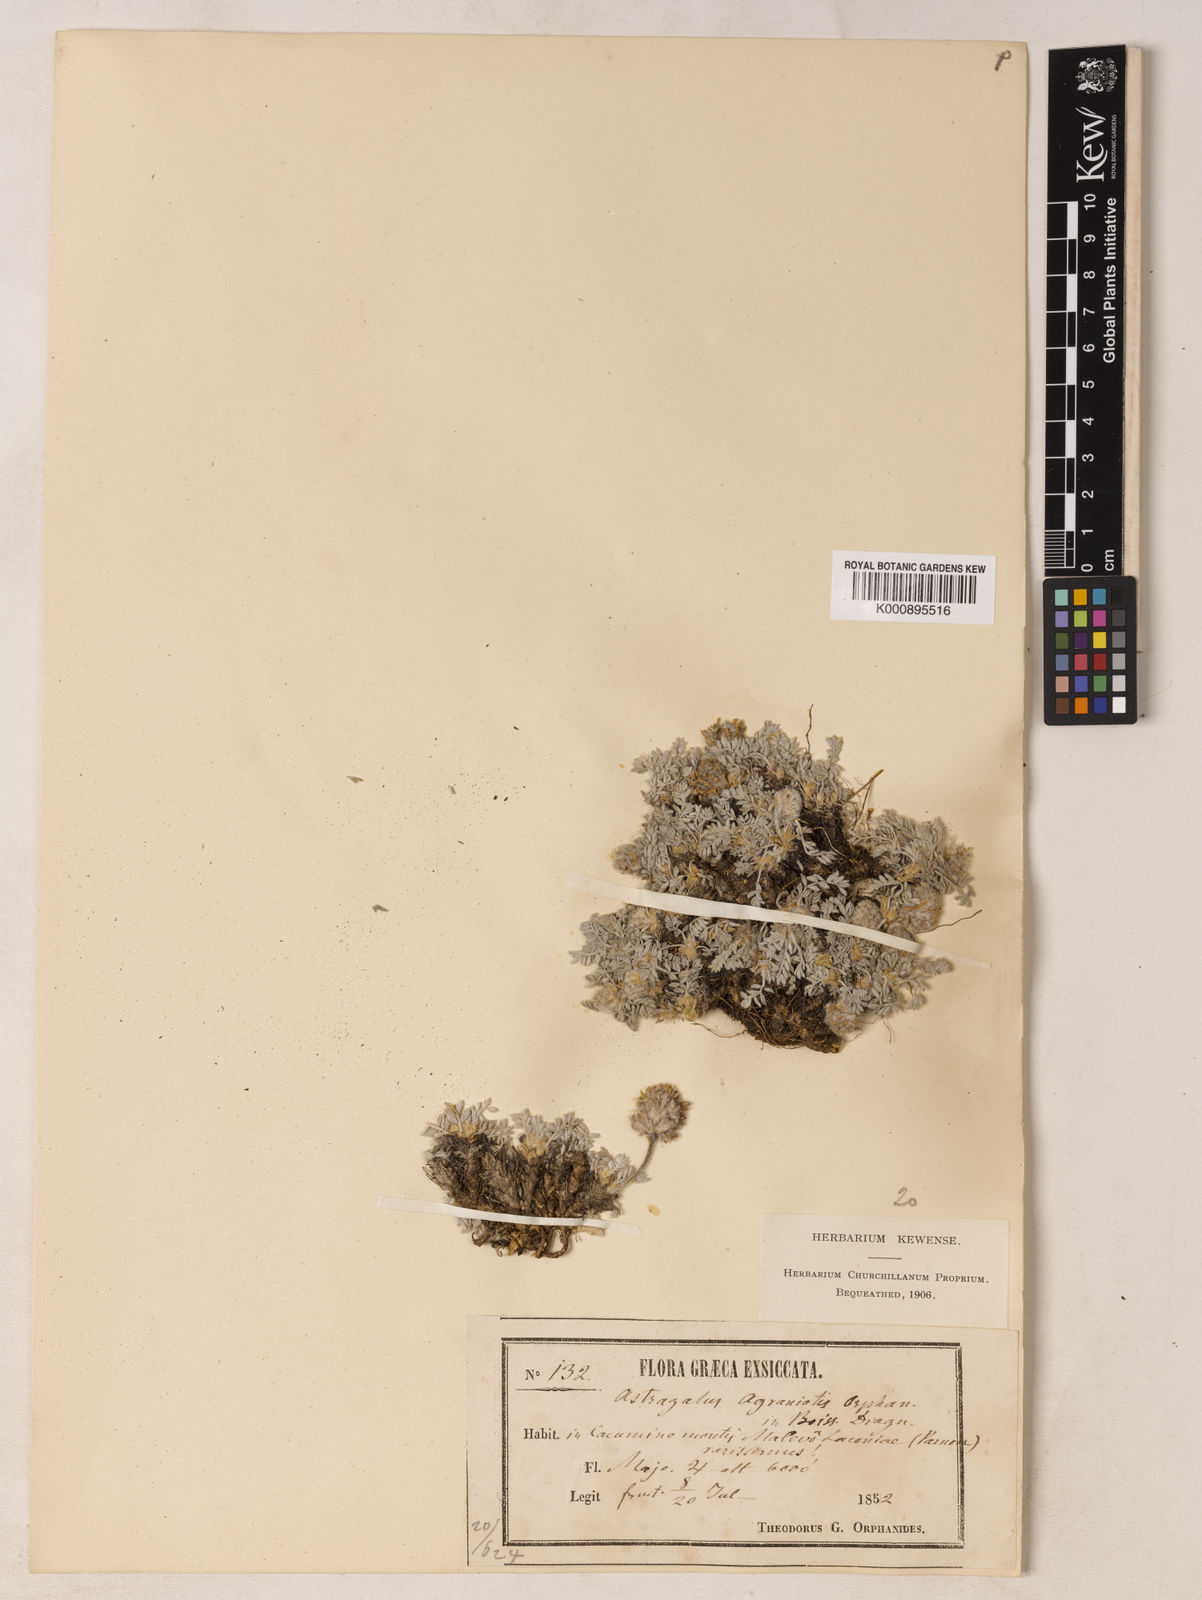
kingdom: Plantae
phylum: Tracheophyta
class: Magnoliopsida
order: Fabales
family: Fabaceae
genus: Astragalus
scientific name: Astragalus
